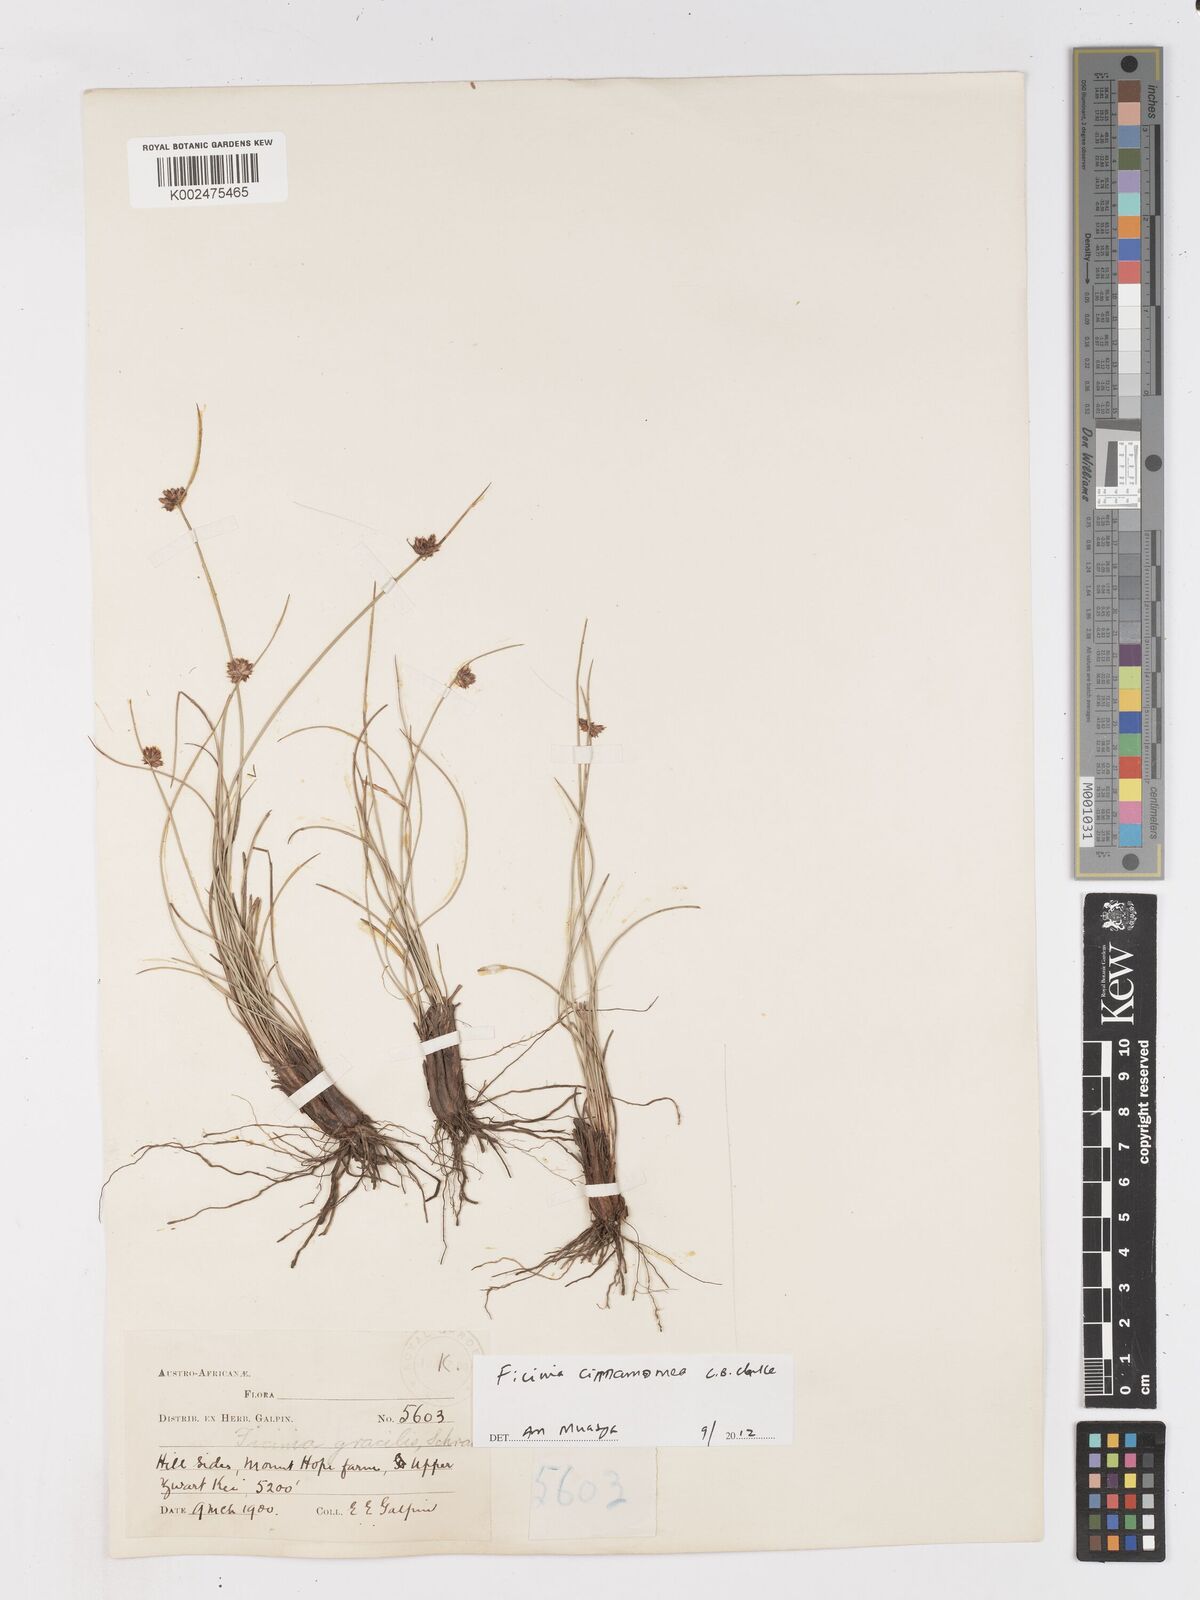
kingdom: Plantae
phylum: Tracheophyta
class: Liliopsida
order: Poales
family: Cyperaceae
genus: Ficinia
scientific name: Ficinia cinnamomea
